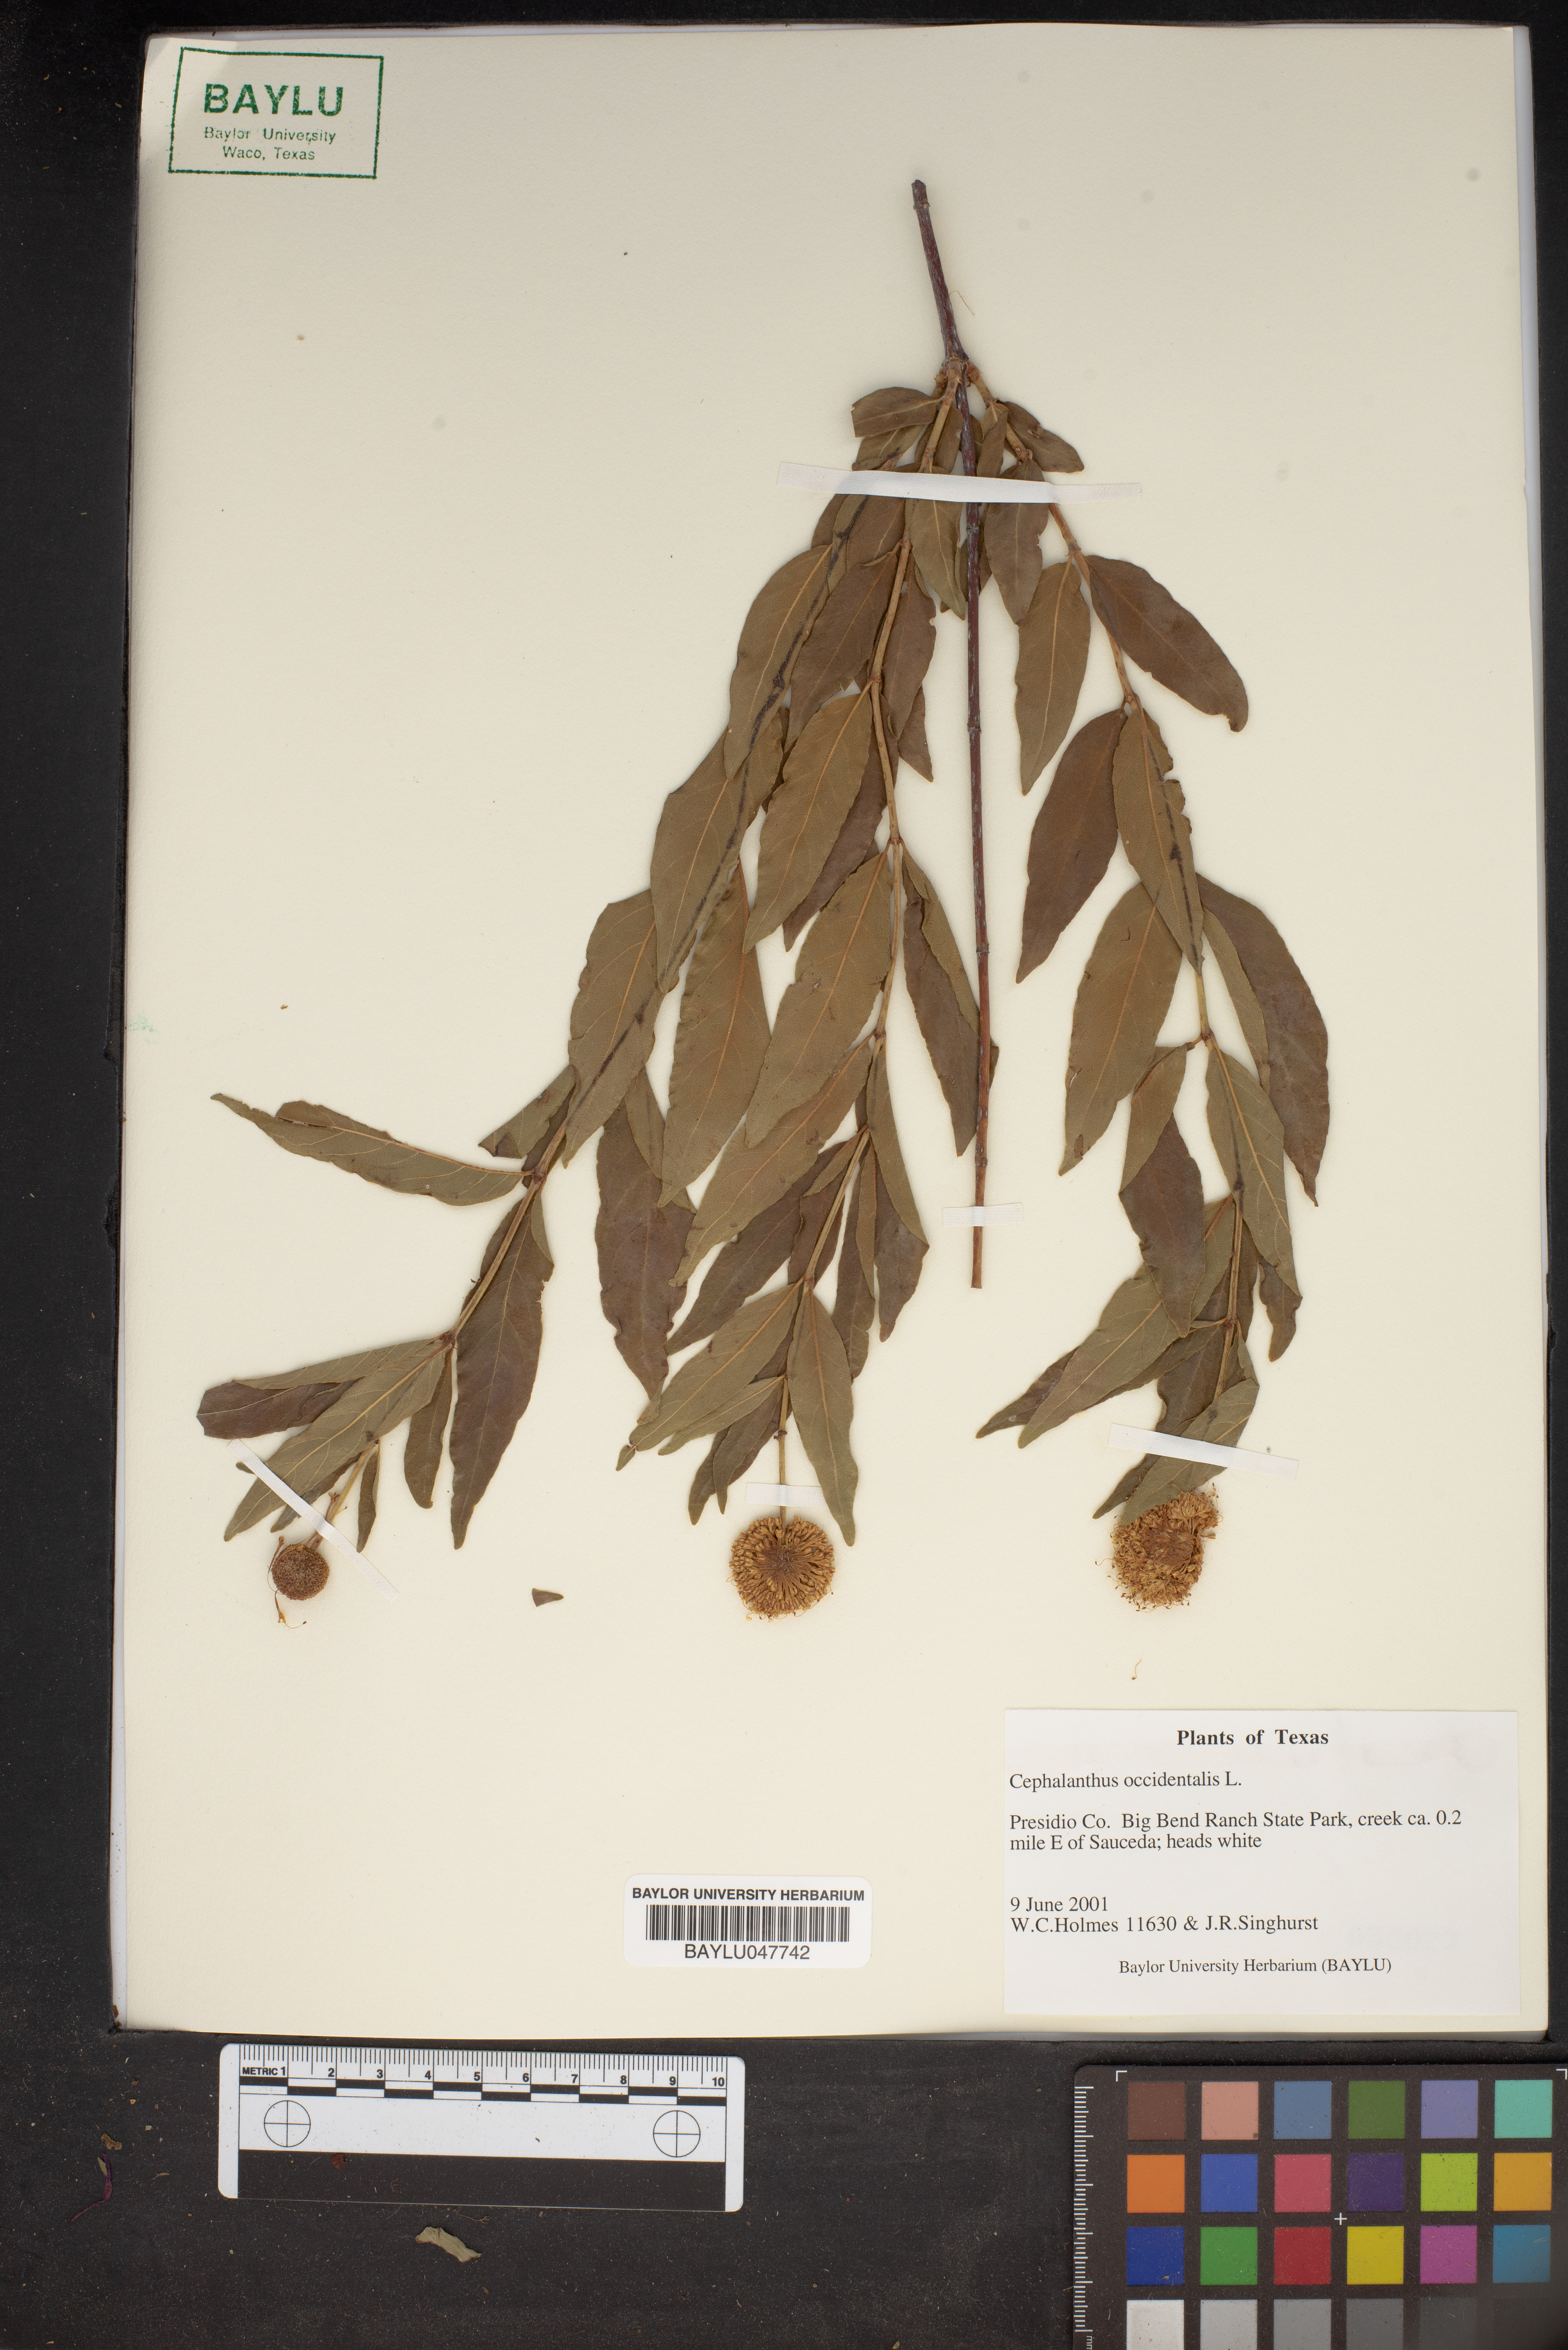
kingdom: Plantae
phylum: Tracheophyta
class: Magnoliopsida
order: Gentianales
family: Rubiaceae
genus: Cephalanthus
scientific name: Cephalanthus occidentalis
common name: Button-willow
